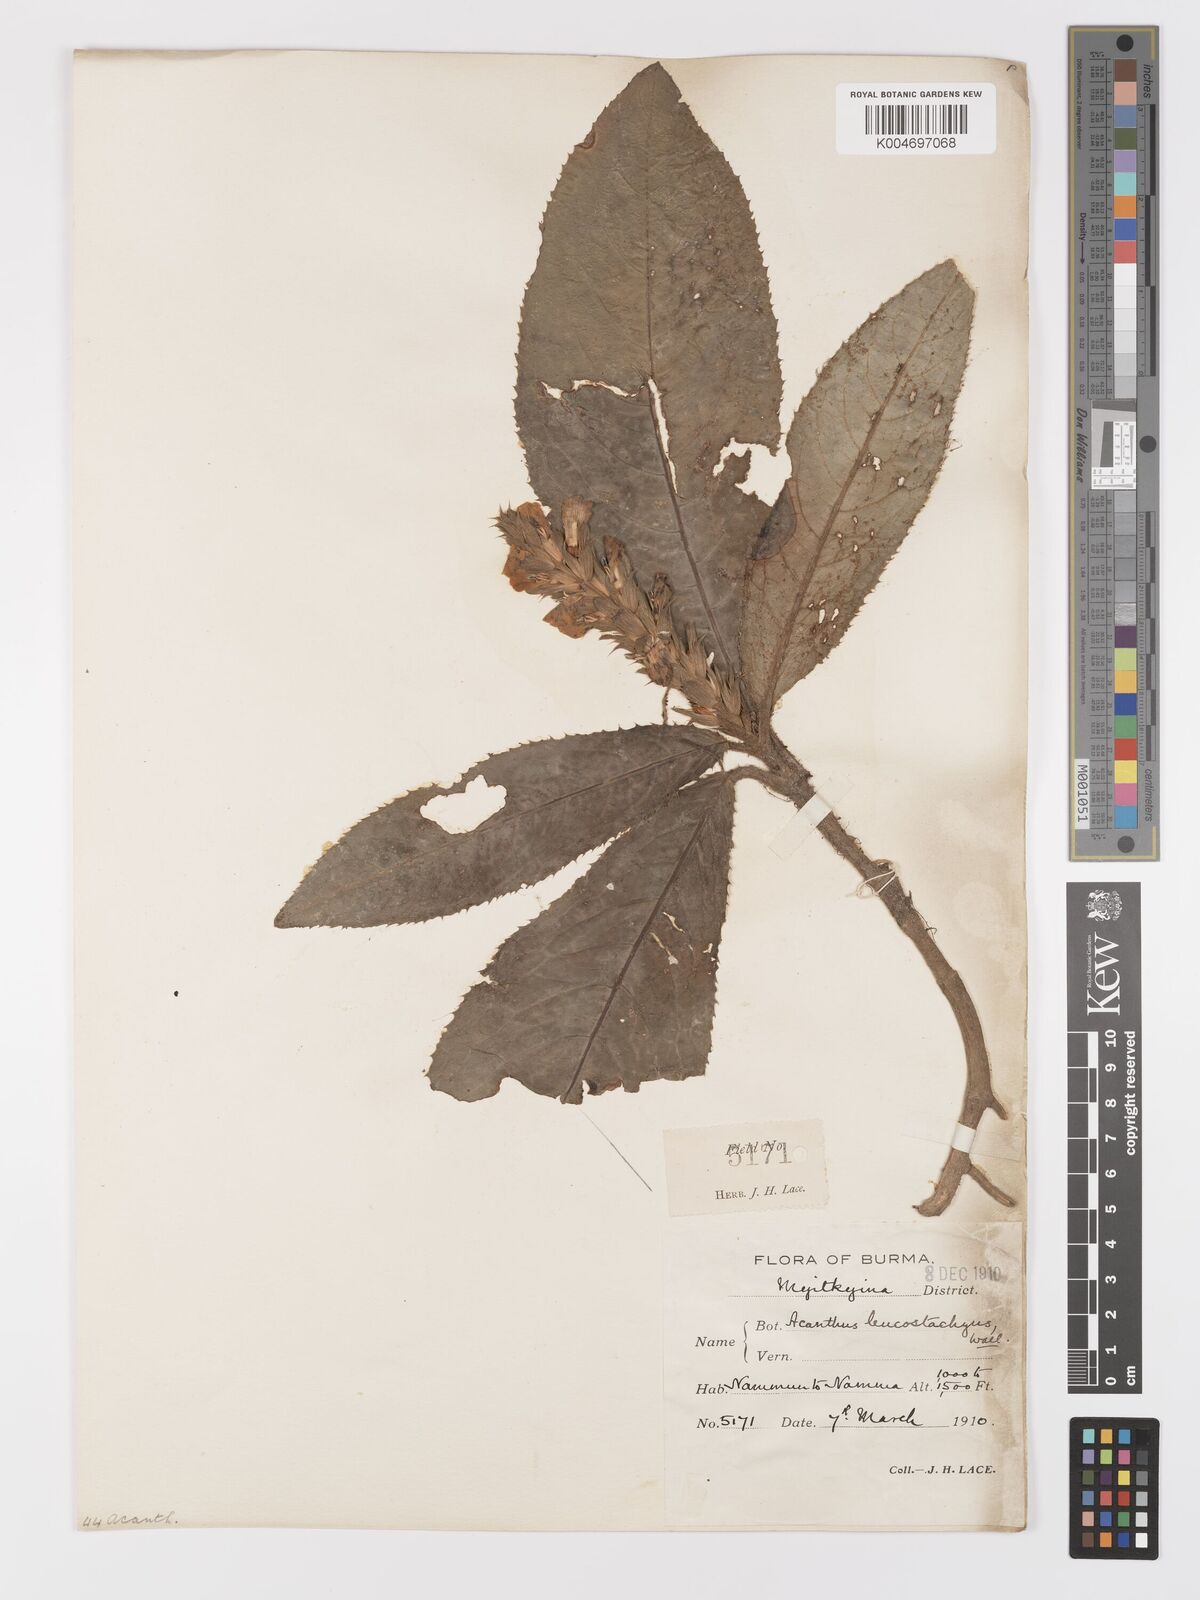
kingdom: Plantae
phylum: Tracheophyta
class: Magnoliopsida
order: Lamiales
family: Acanthaceae
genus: Acanthus
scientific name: Acanthus leucostachyus
